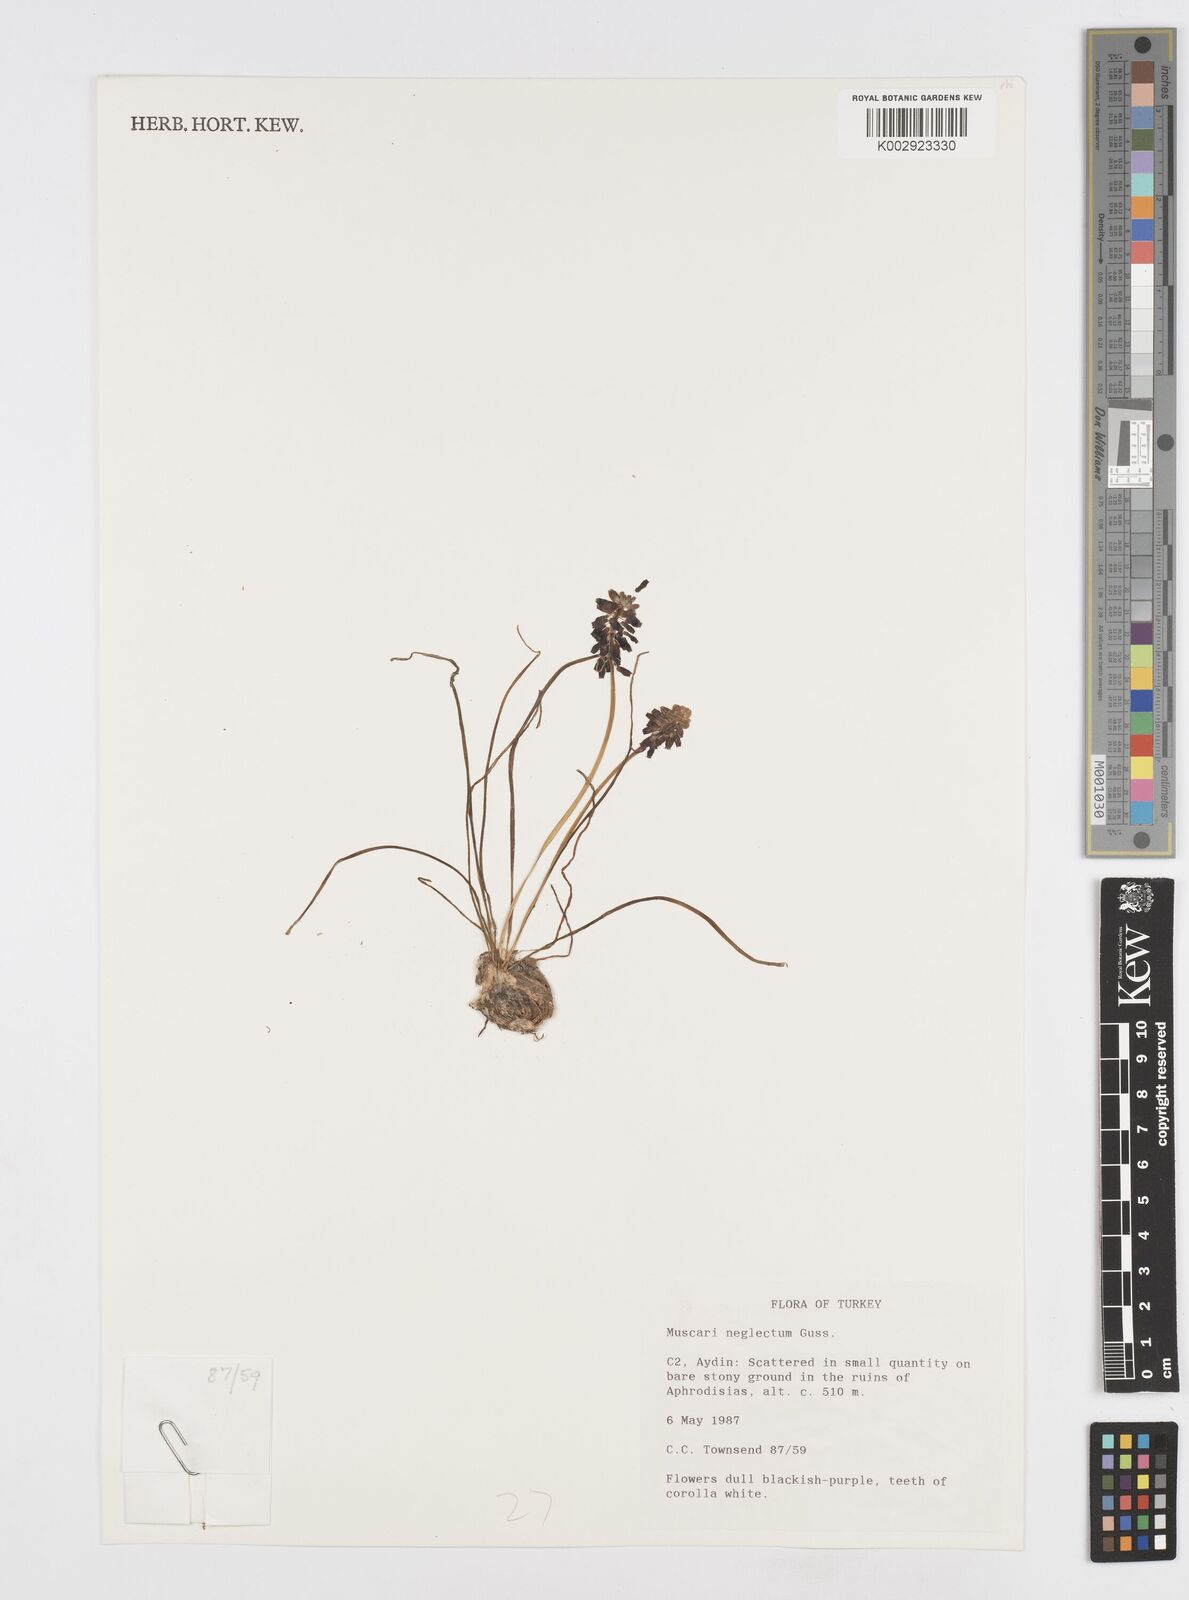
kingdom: Plantae
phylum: Tracheophyta
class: Liliopsida
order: Asparagales
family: Asparagaceae
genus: Muscari
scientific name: Muscari neglectum
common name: Grape-hyacinth
